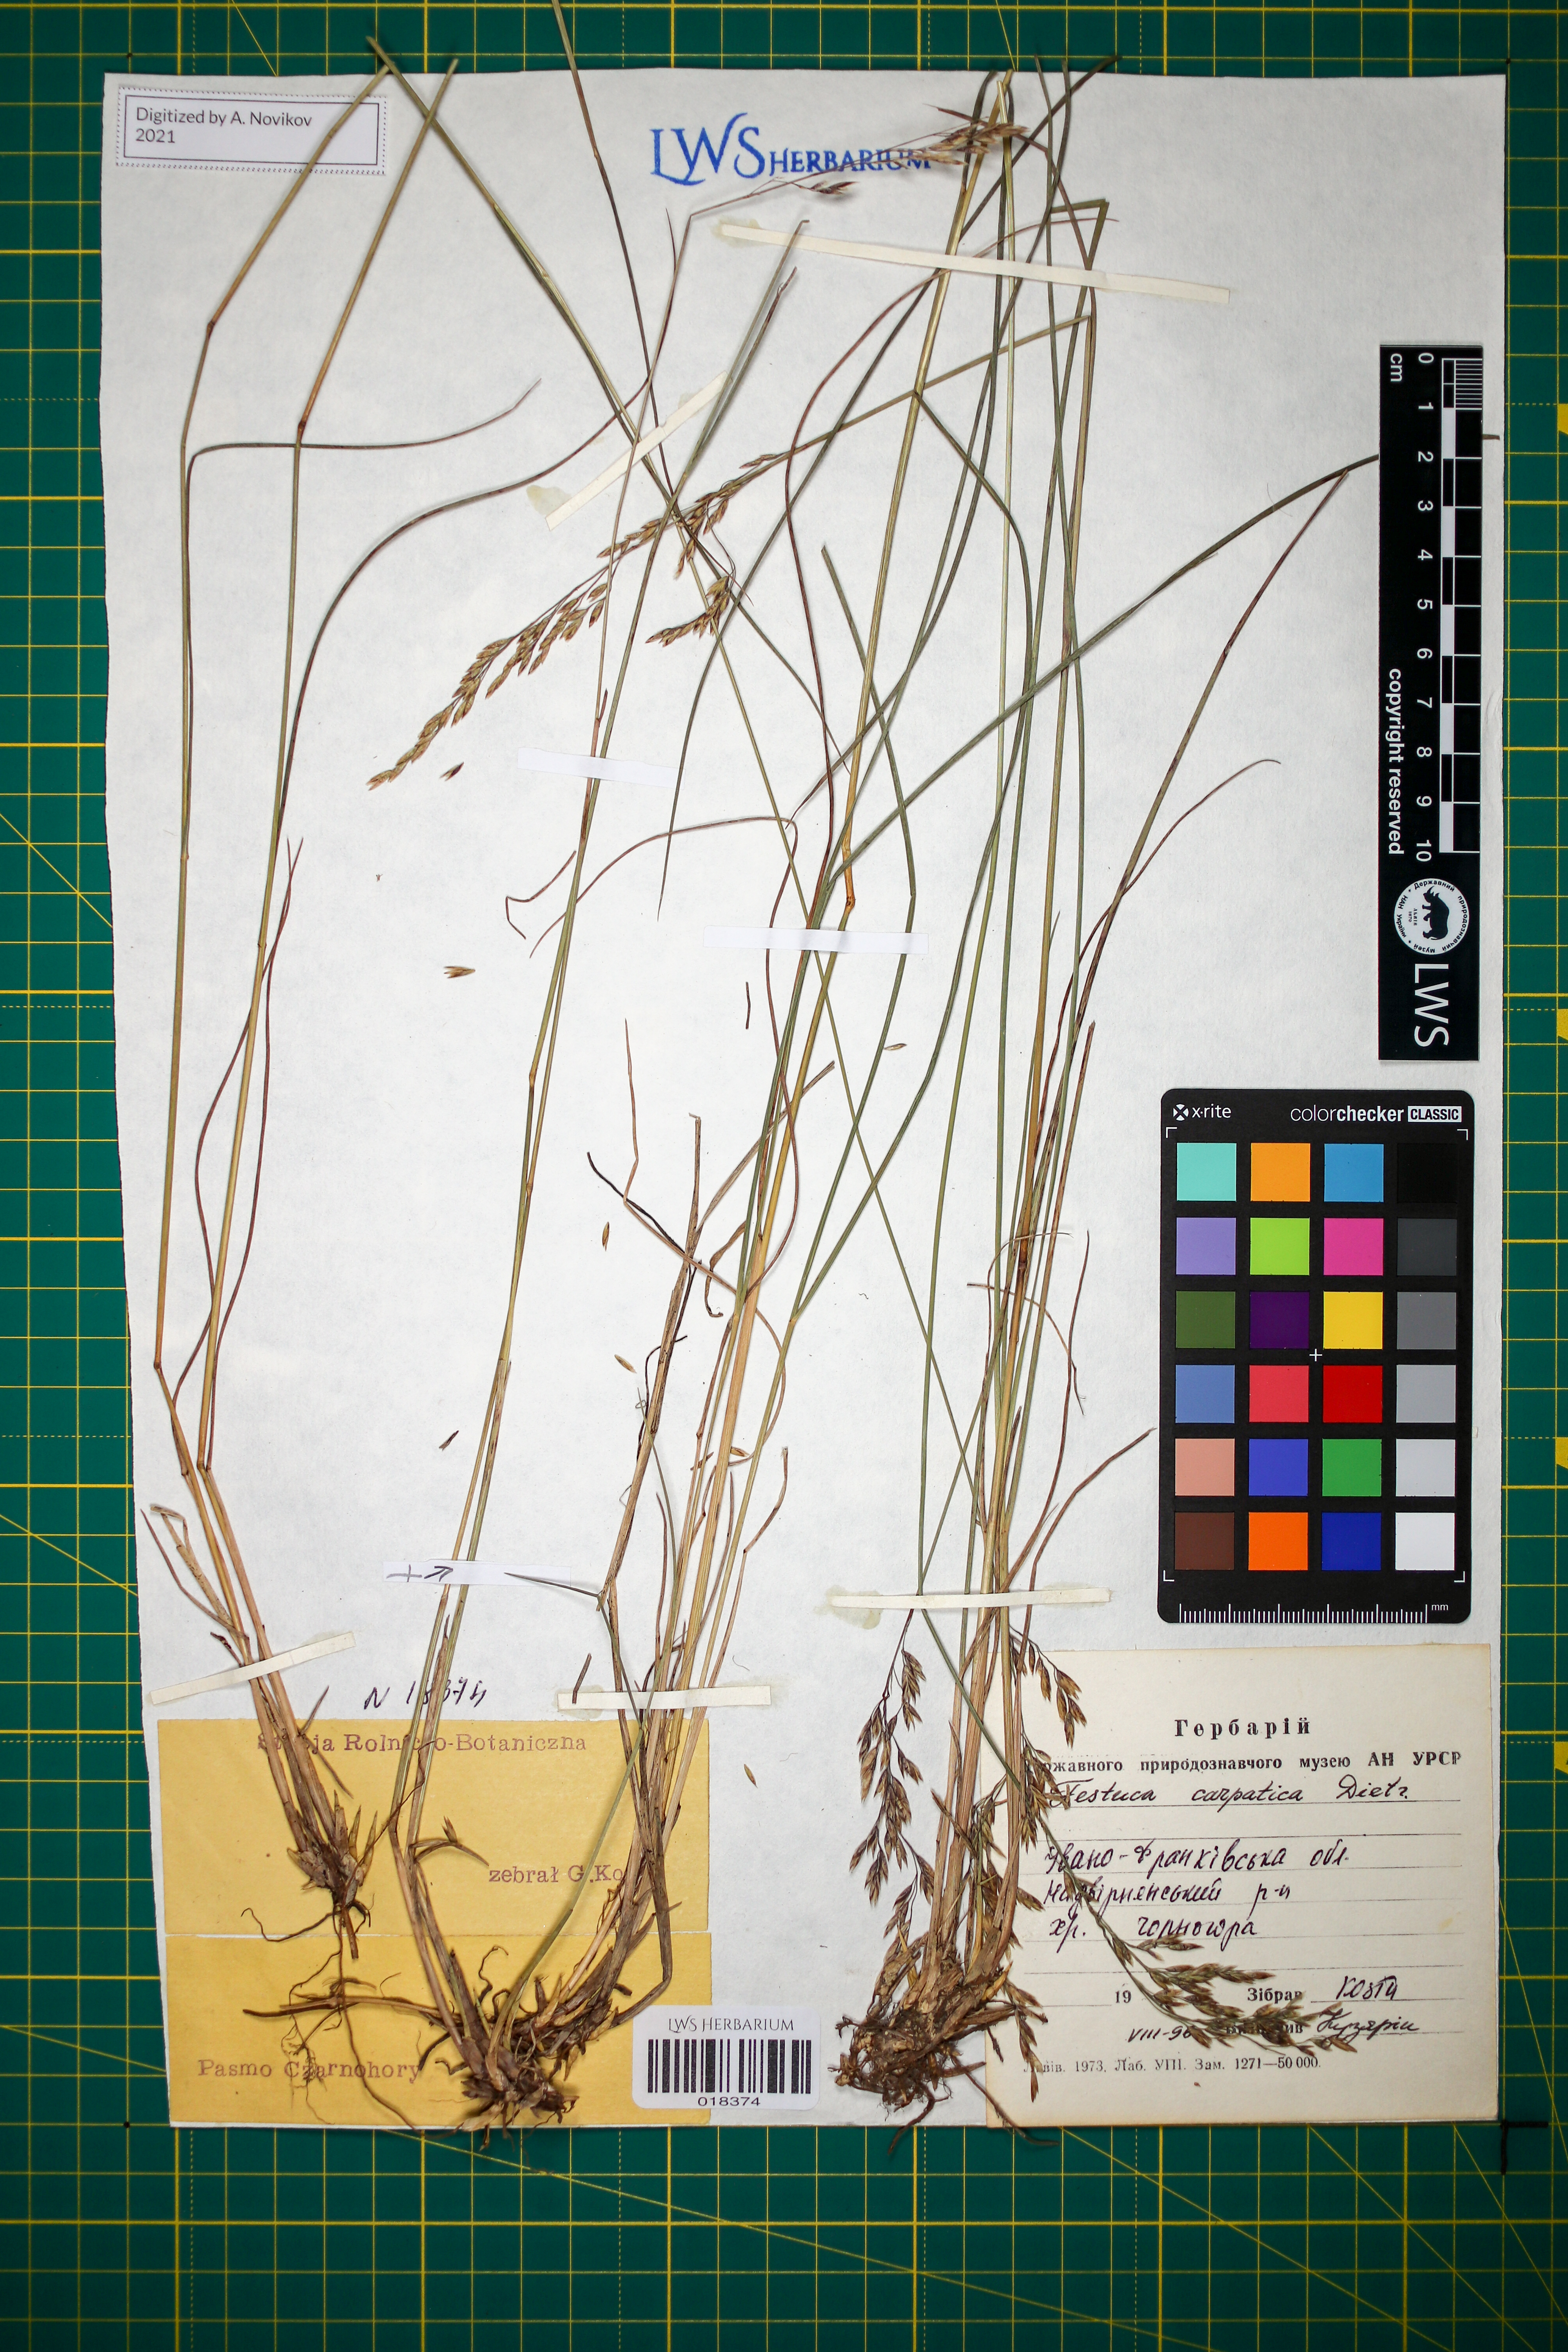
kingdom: Plantae
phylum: Tracheophyta
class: Liliopsida
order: Poales
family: Poaceae
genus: Festuca
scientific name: Festuca carpatica
